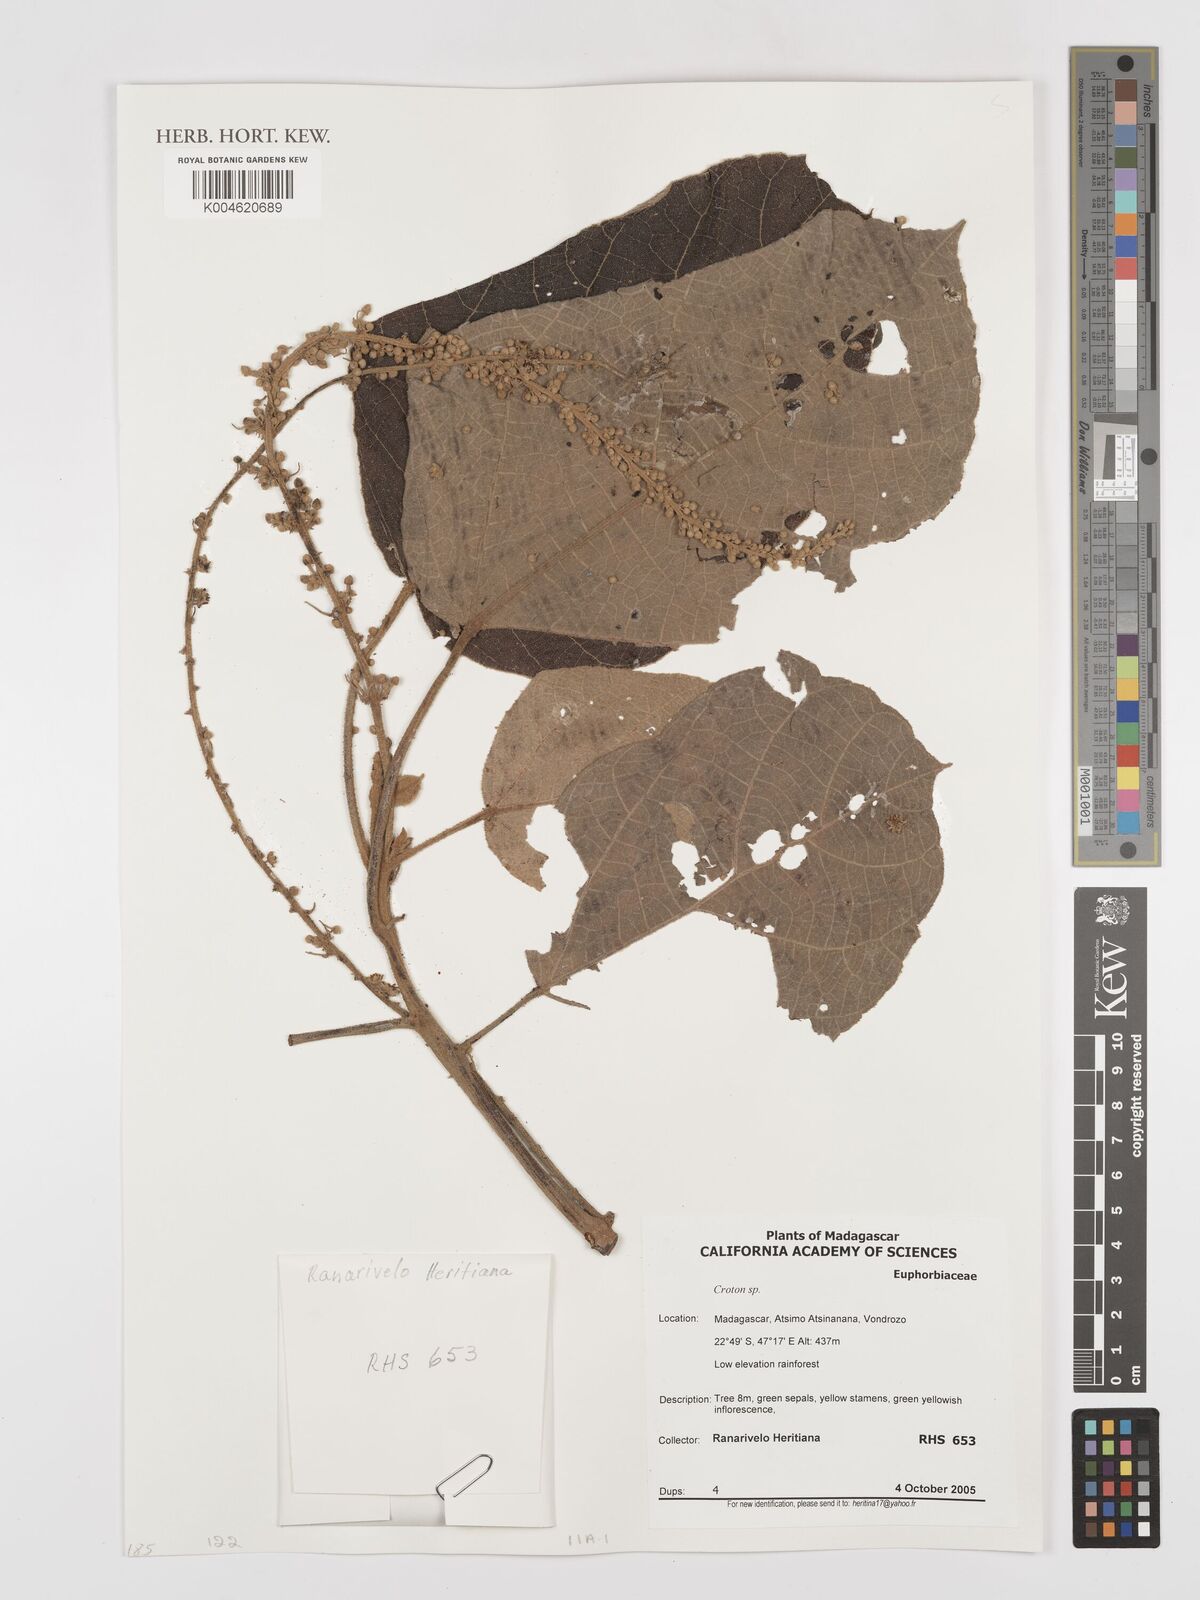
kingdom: Plantae
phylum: Tracheophyta
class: Magnoliopsida
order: Malpighiales
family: Euphorbiaceae
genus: Croton
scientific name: Croton
